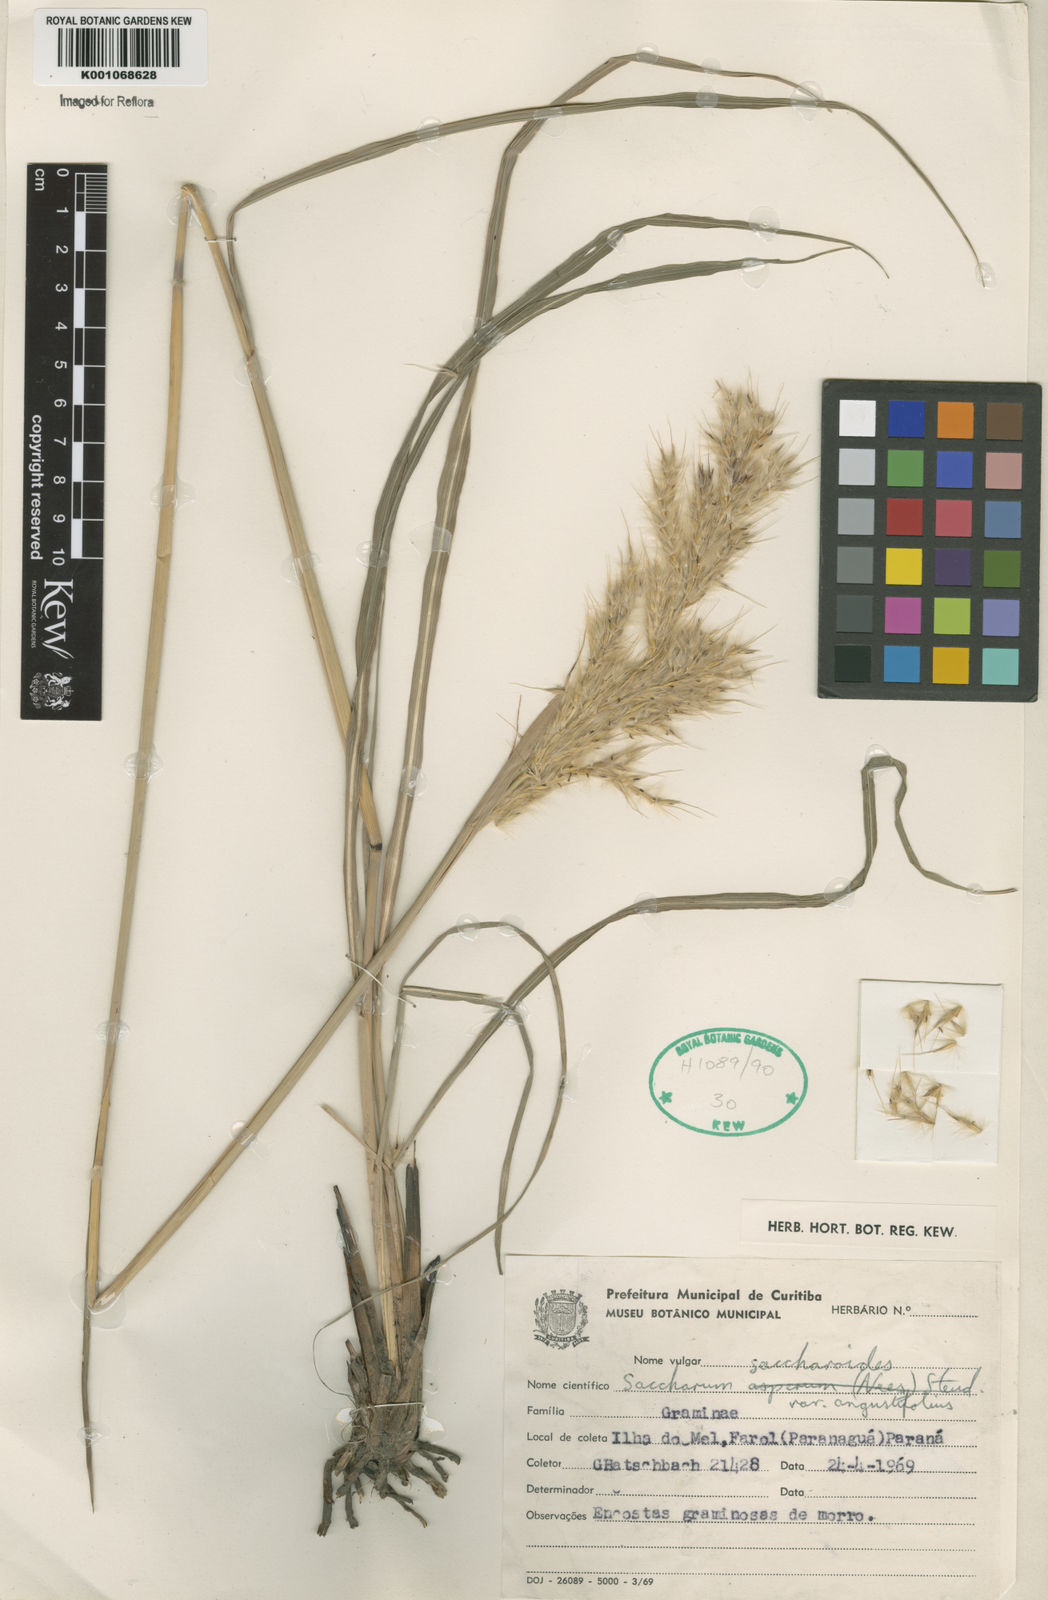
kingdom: Plantae
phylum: Tracheophyta
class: Liliopsida
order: Poales
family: Poaceae
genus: Saccharum
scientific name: Saccharum angustifolium
